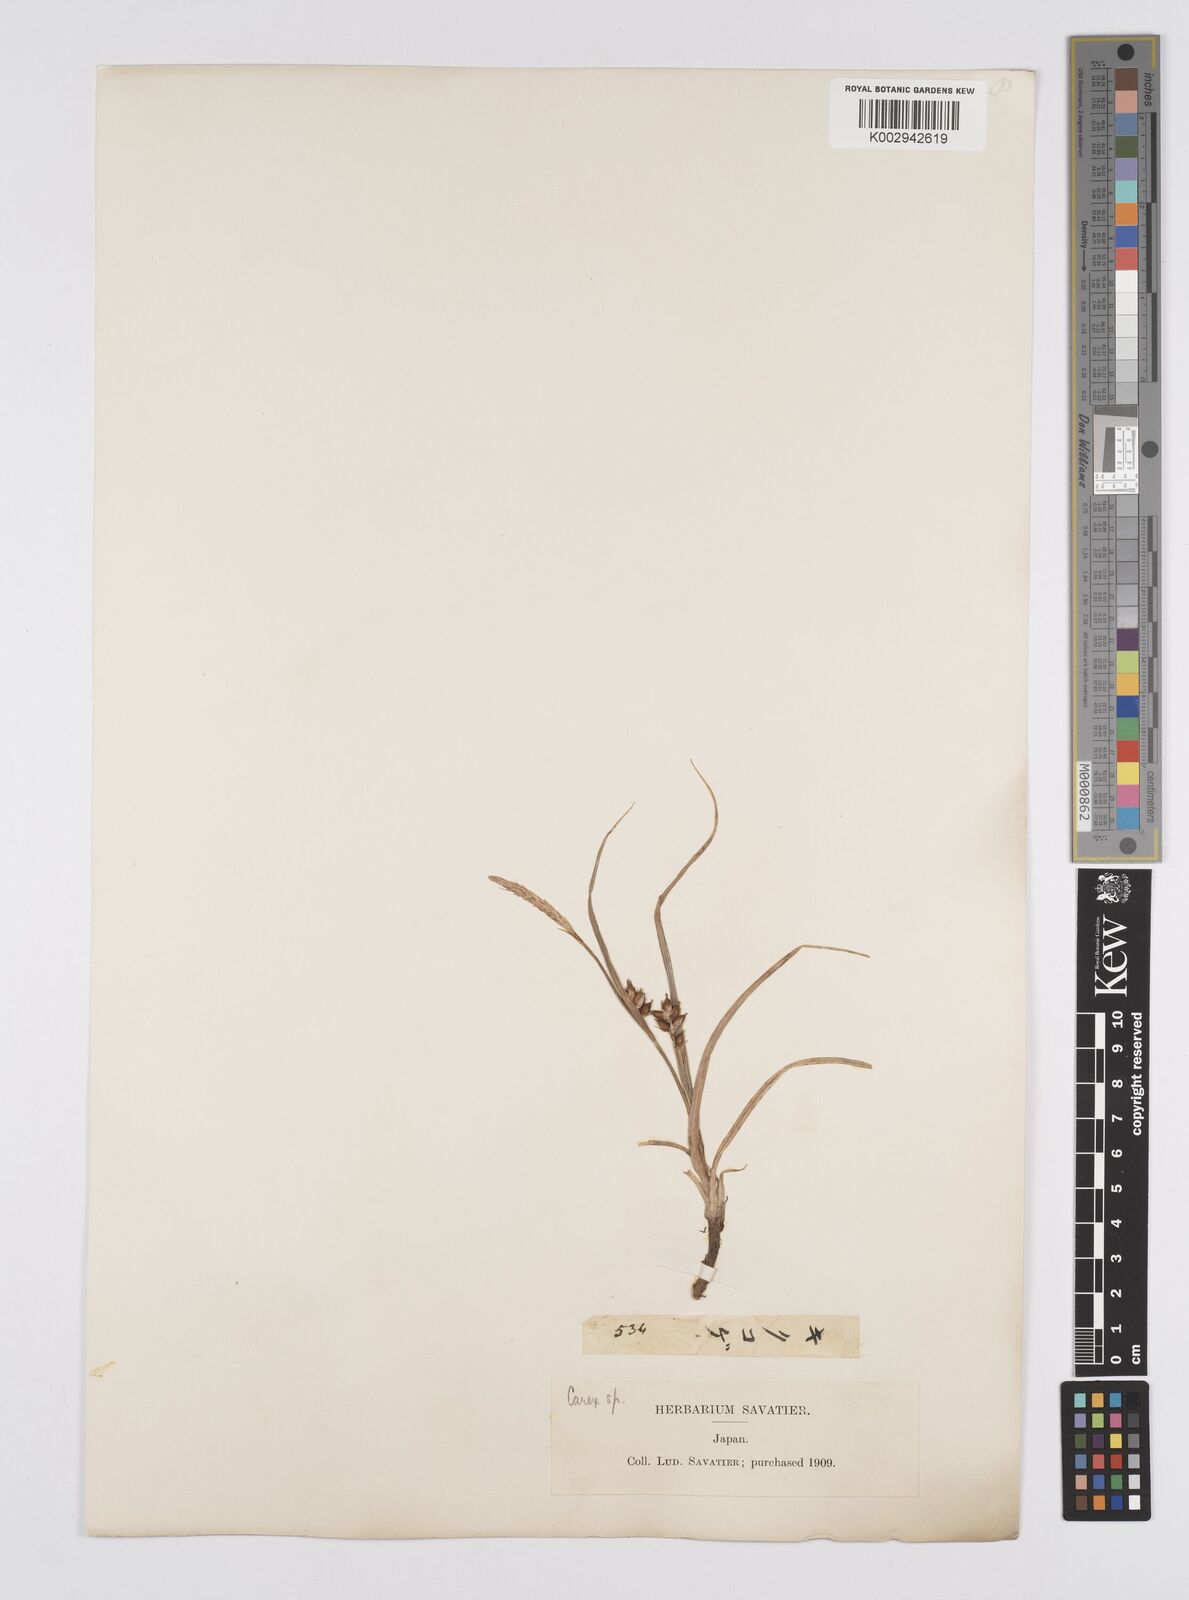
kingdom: Plantae
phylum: Tracheophyta
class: Liliopsida
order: Poales
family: Cyperaceae
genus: Carex
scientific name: Carex pumila
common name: Dwarf sedge
